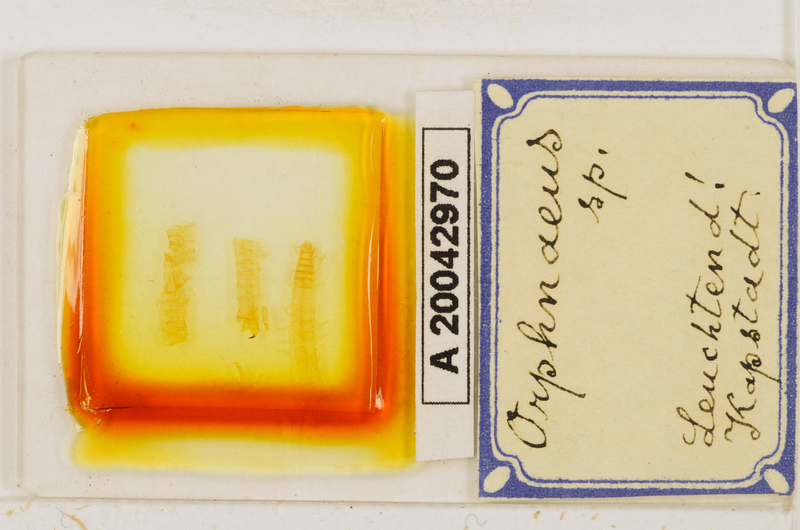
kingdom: Animalia
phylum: Arthropoda
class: Chilopoda
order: Geophilomorpha
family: Oryidae
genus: Orphnaeus
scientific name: Orphnaeus
